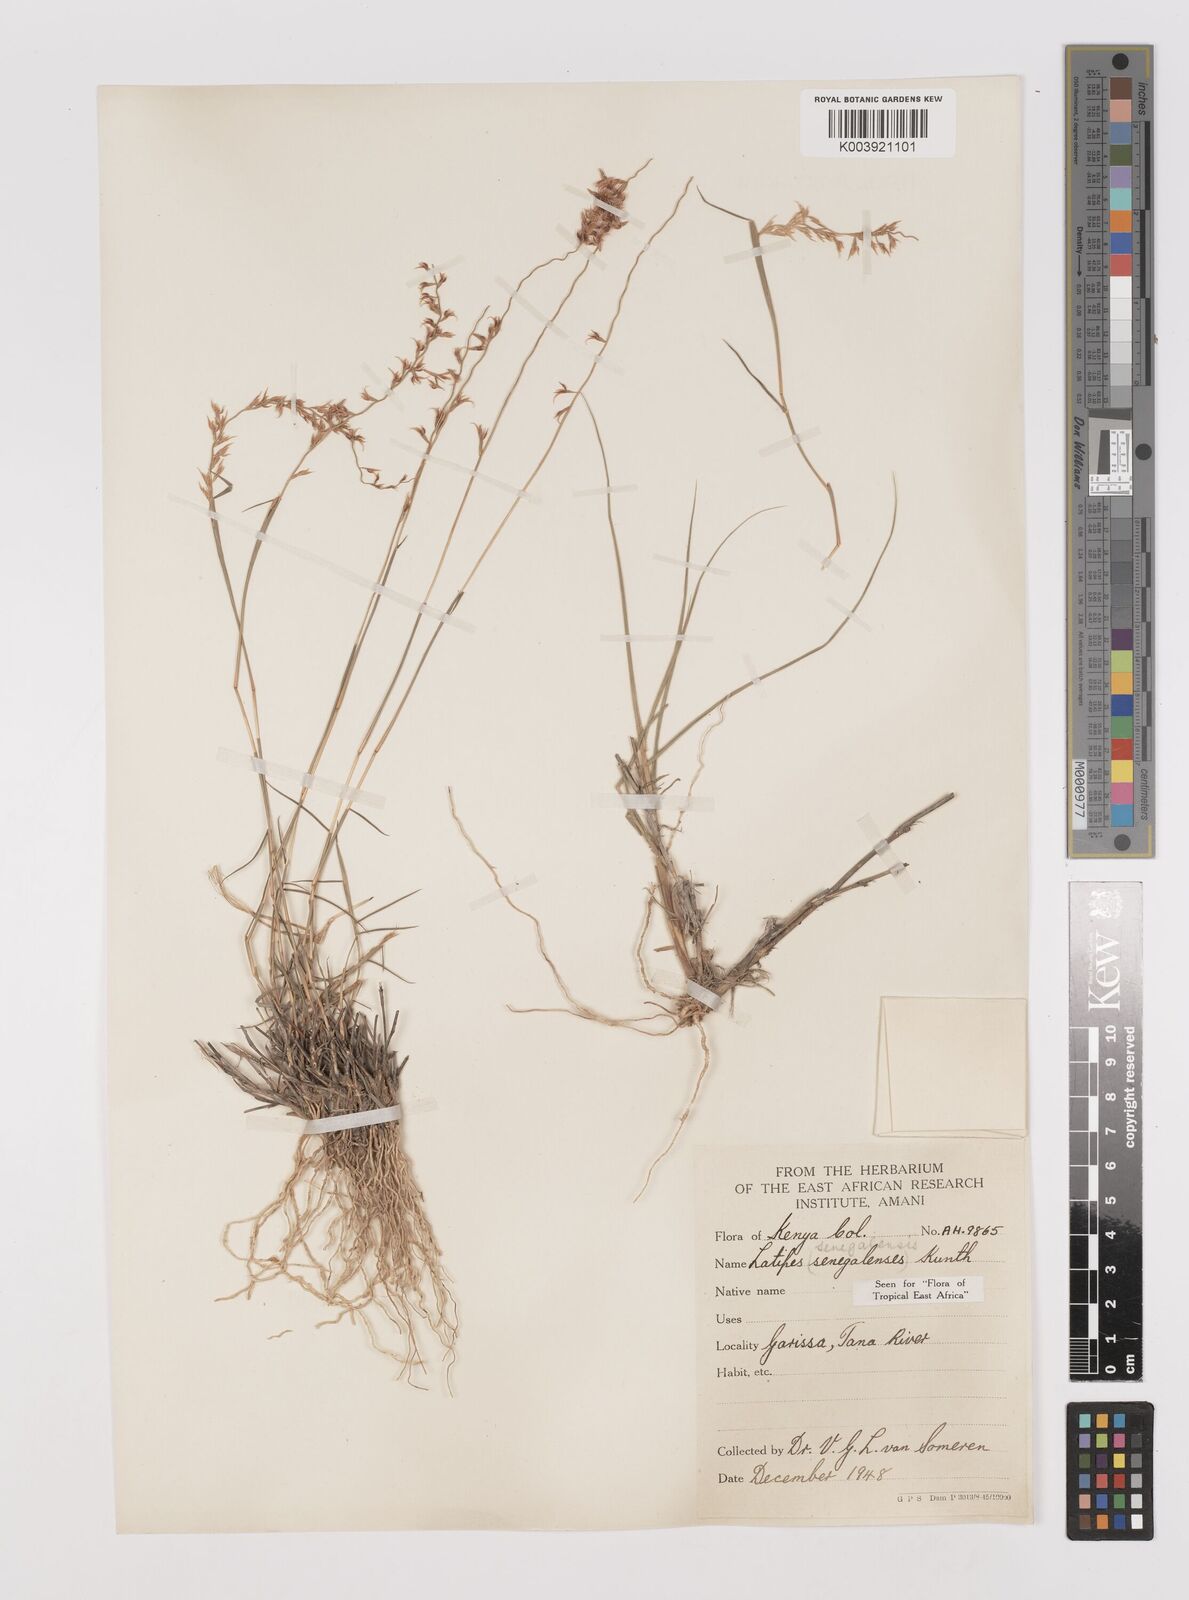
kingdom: Plantae
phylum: Tracheophyta
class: Liliopsida
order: Poales
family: Poaceae
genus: Leptothrium
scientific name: Leptothrium senegalense
